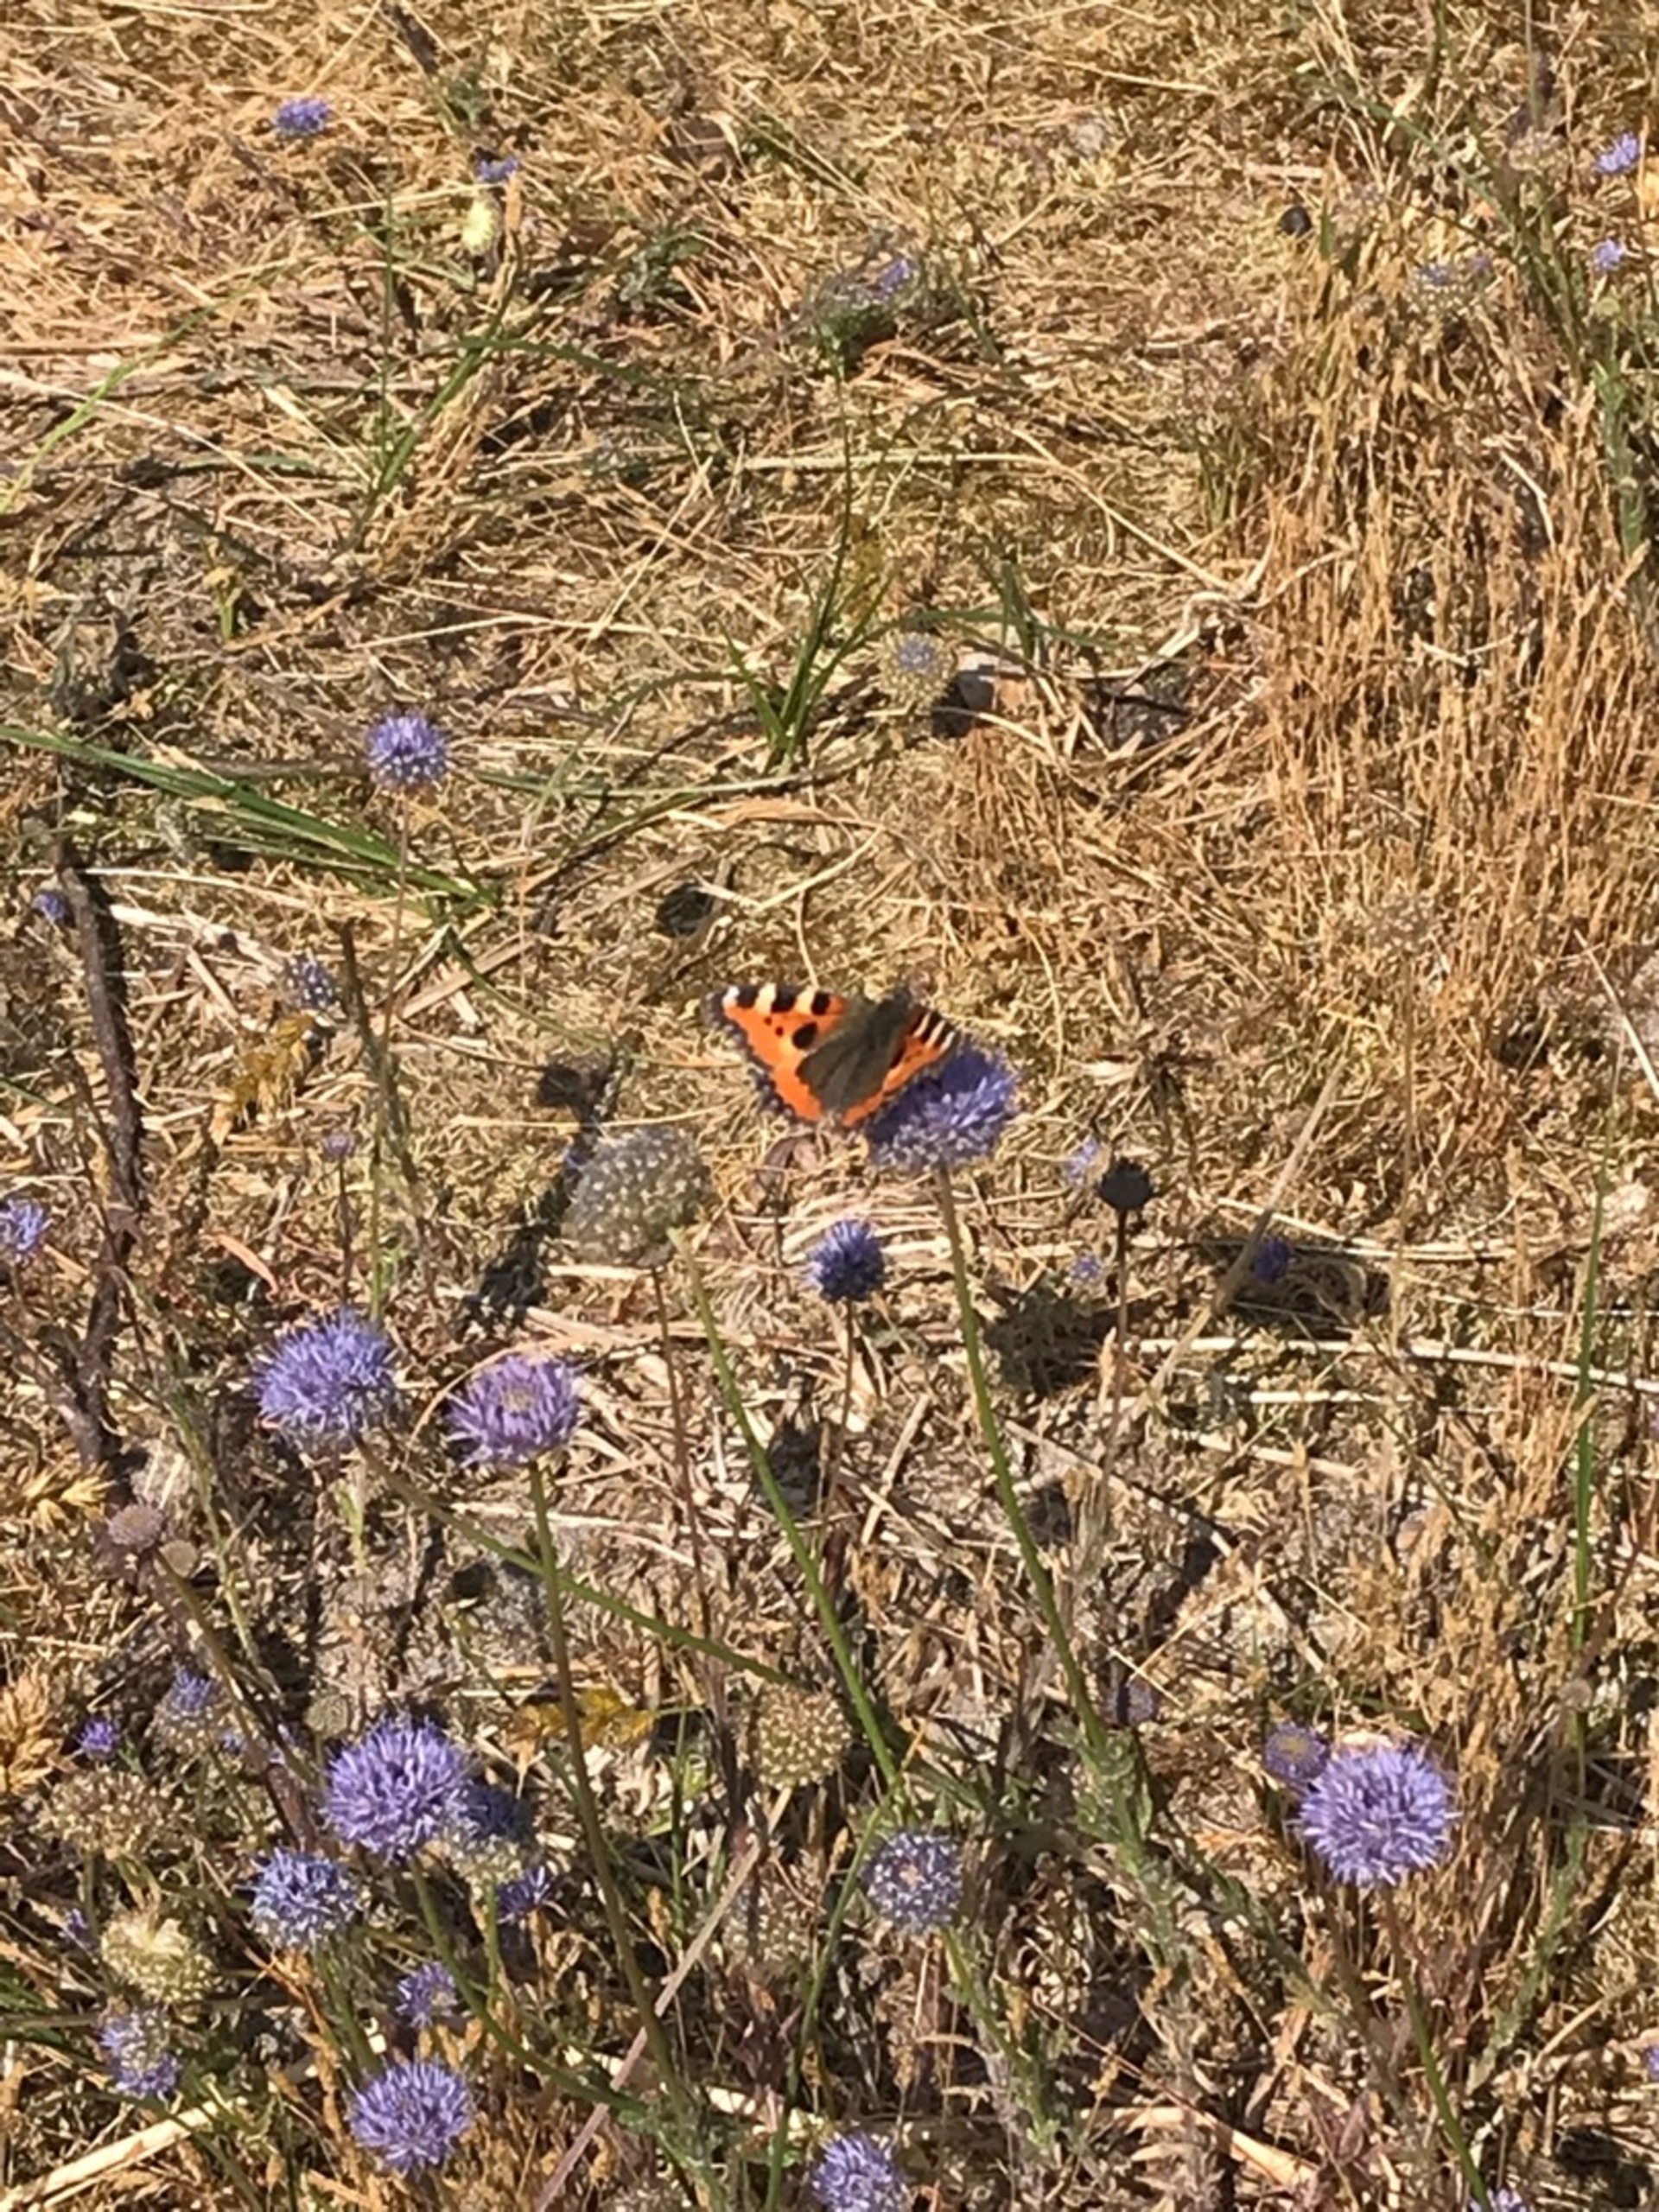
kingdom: Animalia
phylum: Arthropoda
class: Insecta
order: Lepidoptera
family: Nymphalidae
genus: Aglais
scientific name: Aglais urticae
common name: Nældens takvinge
